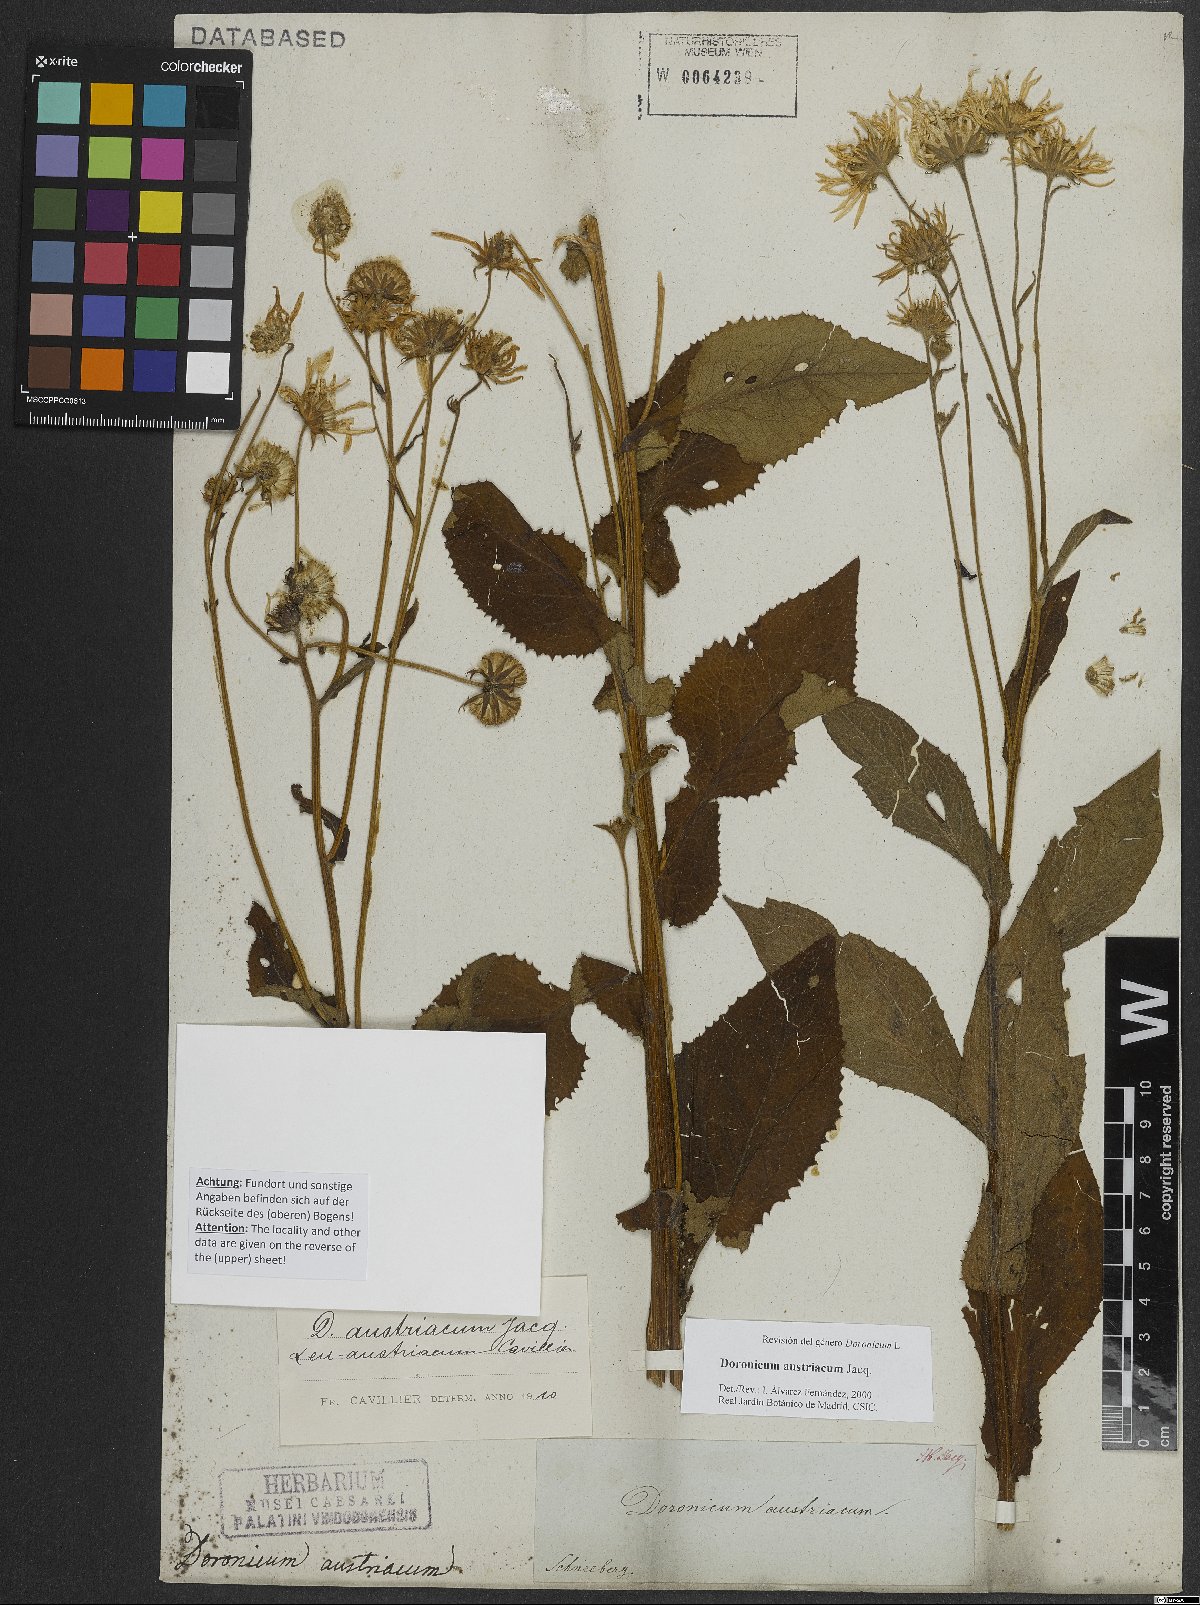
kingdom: Plantae
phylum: Tracheophyta
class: Magnoliopsida
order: Asterales
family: Asteraceae
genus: Doronicum
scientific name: Doronicum austriacum
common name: Austrian leopard's-bane
